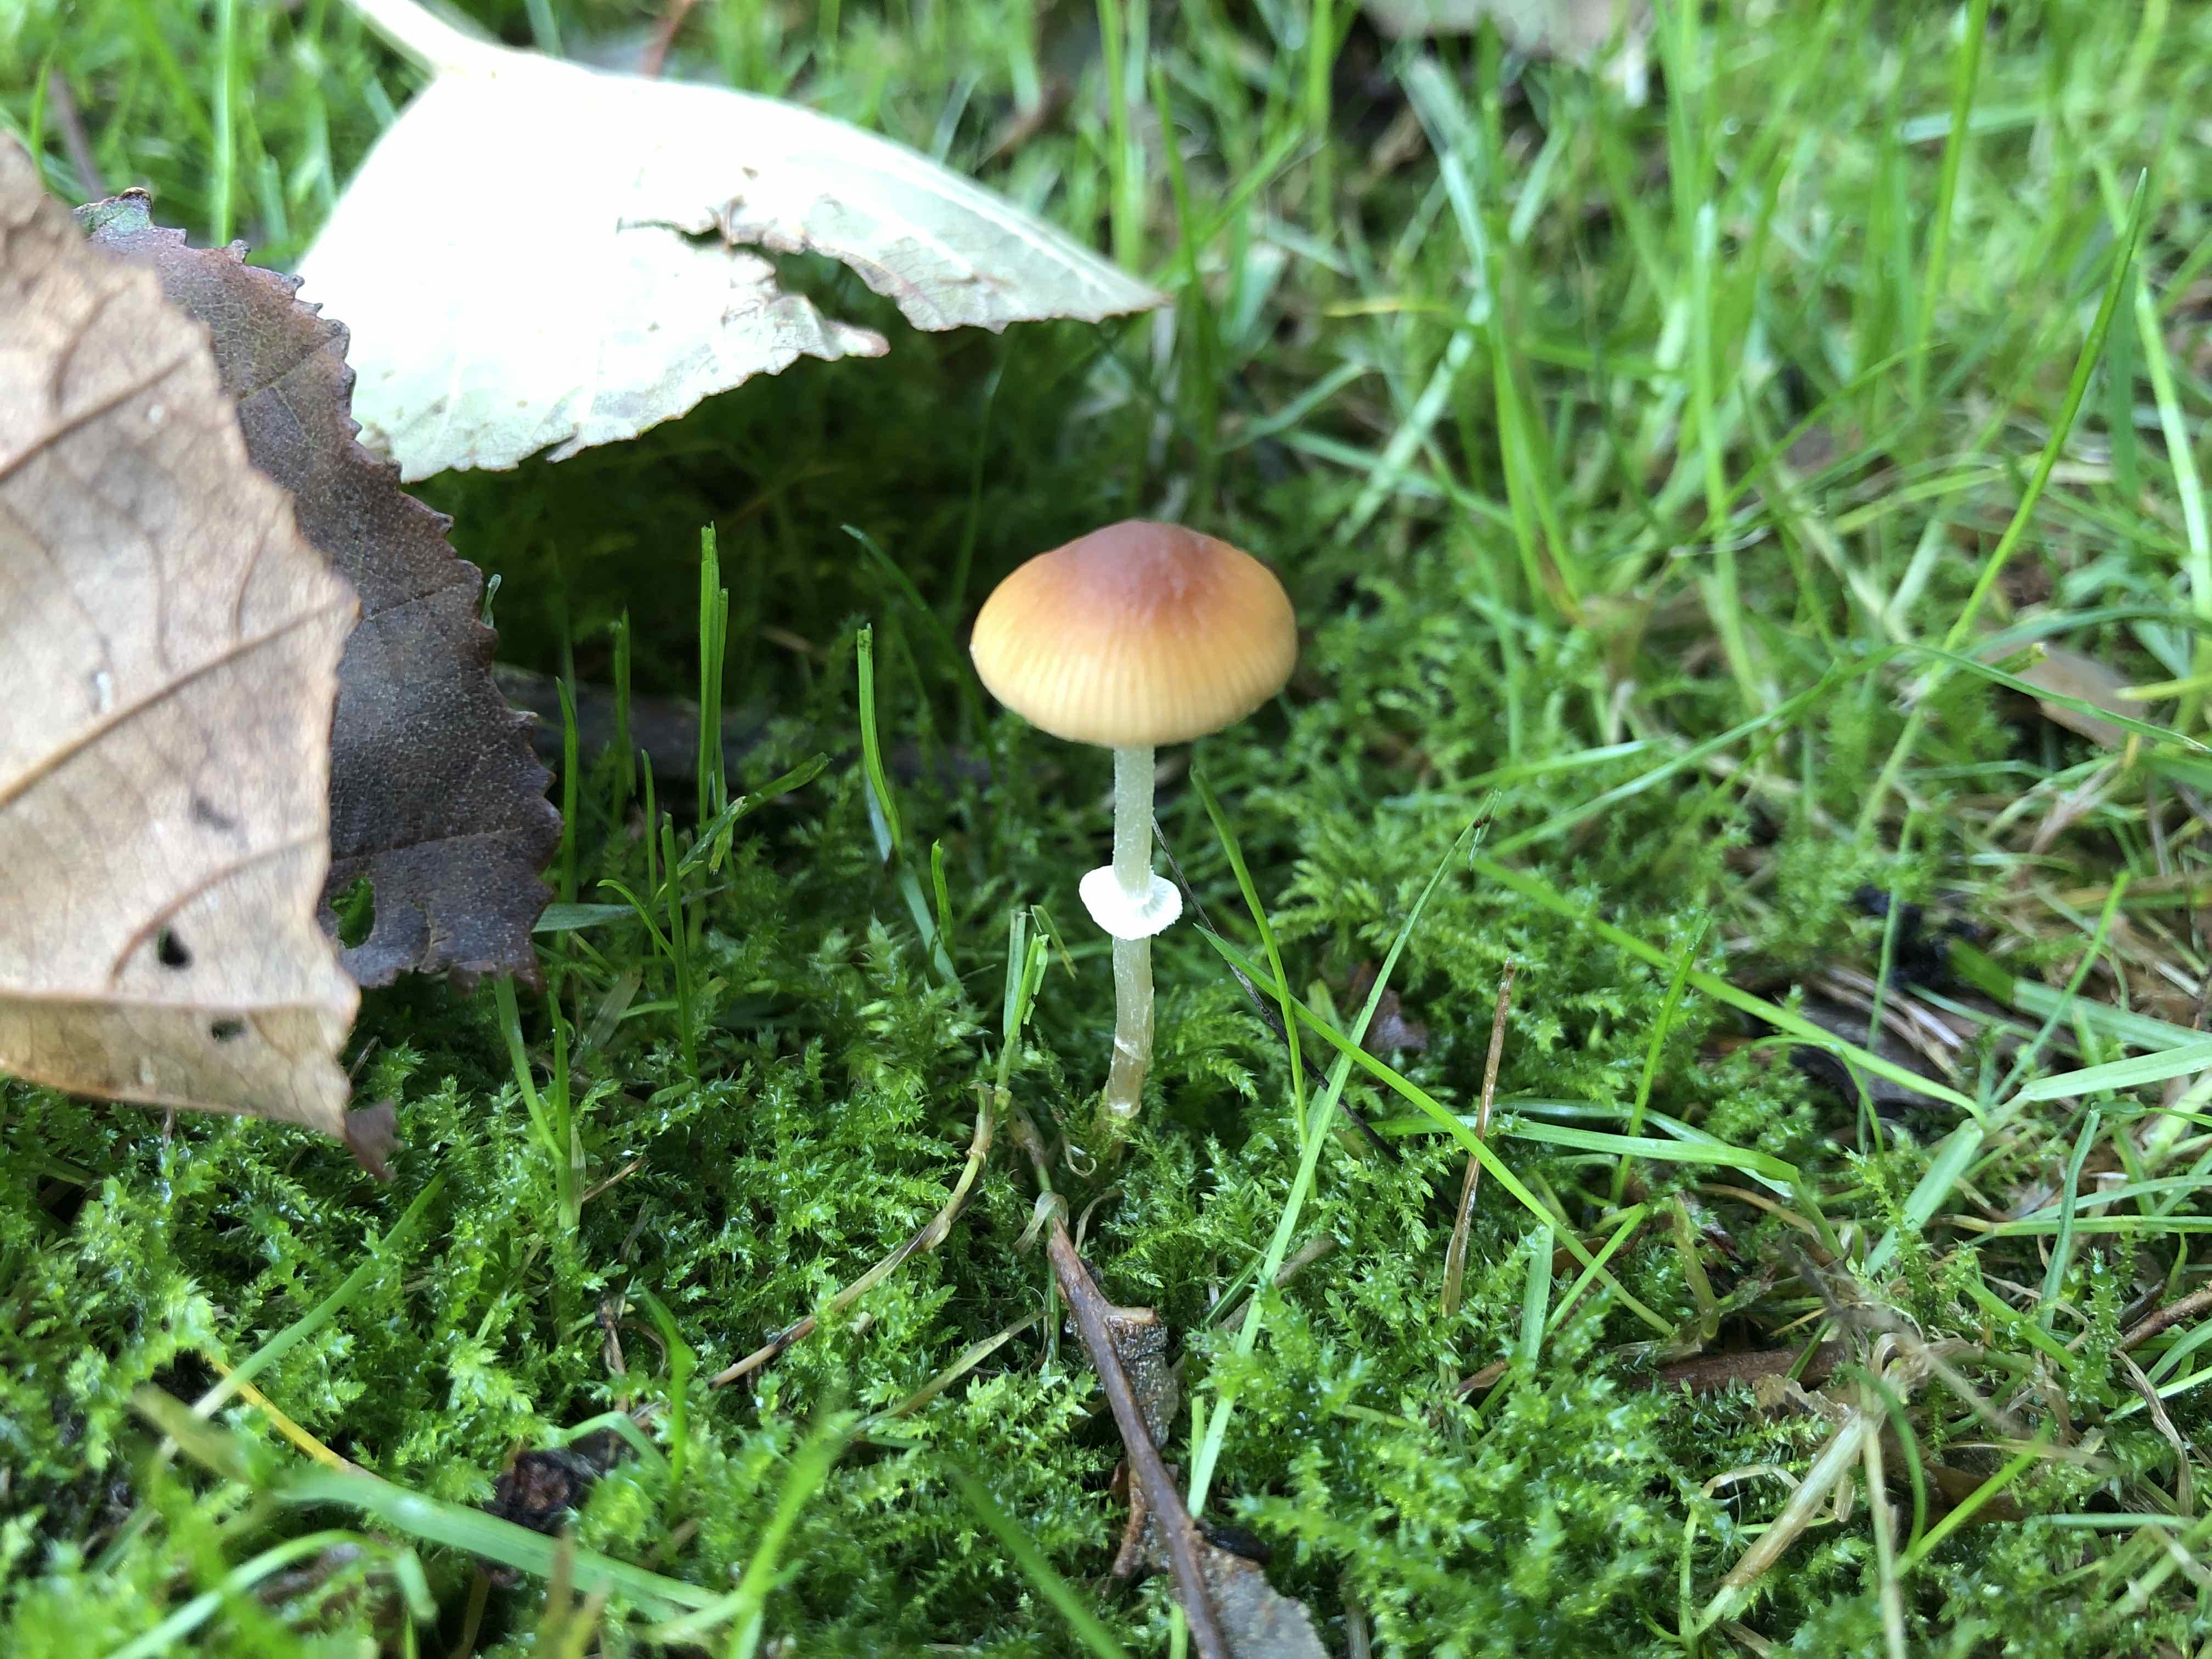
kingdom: Fungi
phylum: Basidiomycota
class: Agaricomycetes
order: Agaricales
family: Bolbitiaceae
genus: Conocybe
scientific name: Conocybe arrhenii
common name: ring-dansehat
